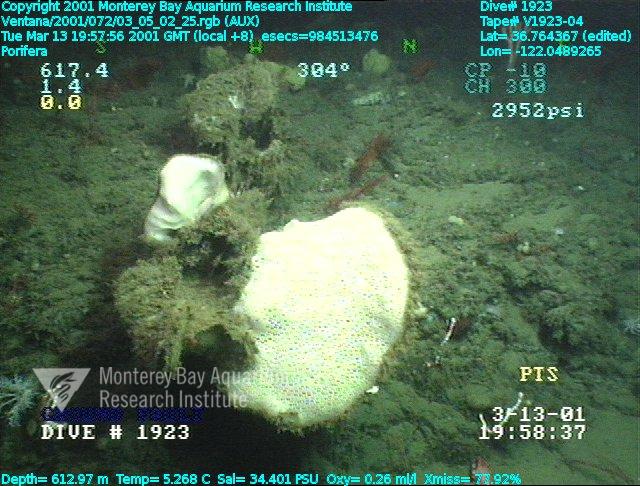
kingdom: Animalia
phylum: Porifera
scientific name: Porifera
